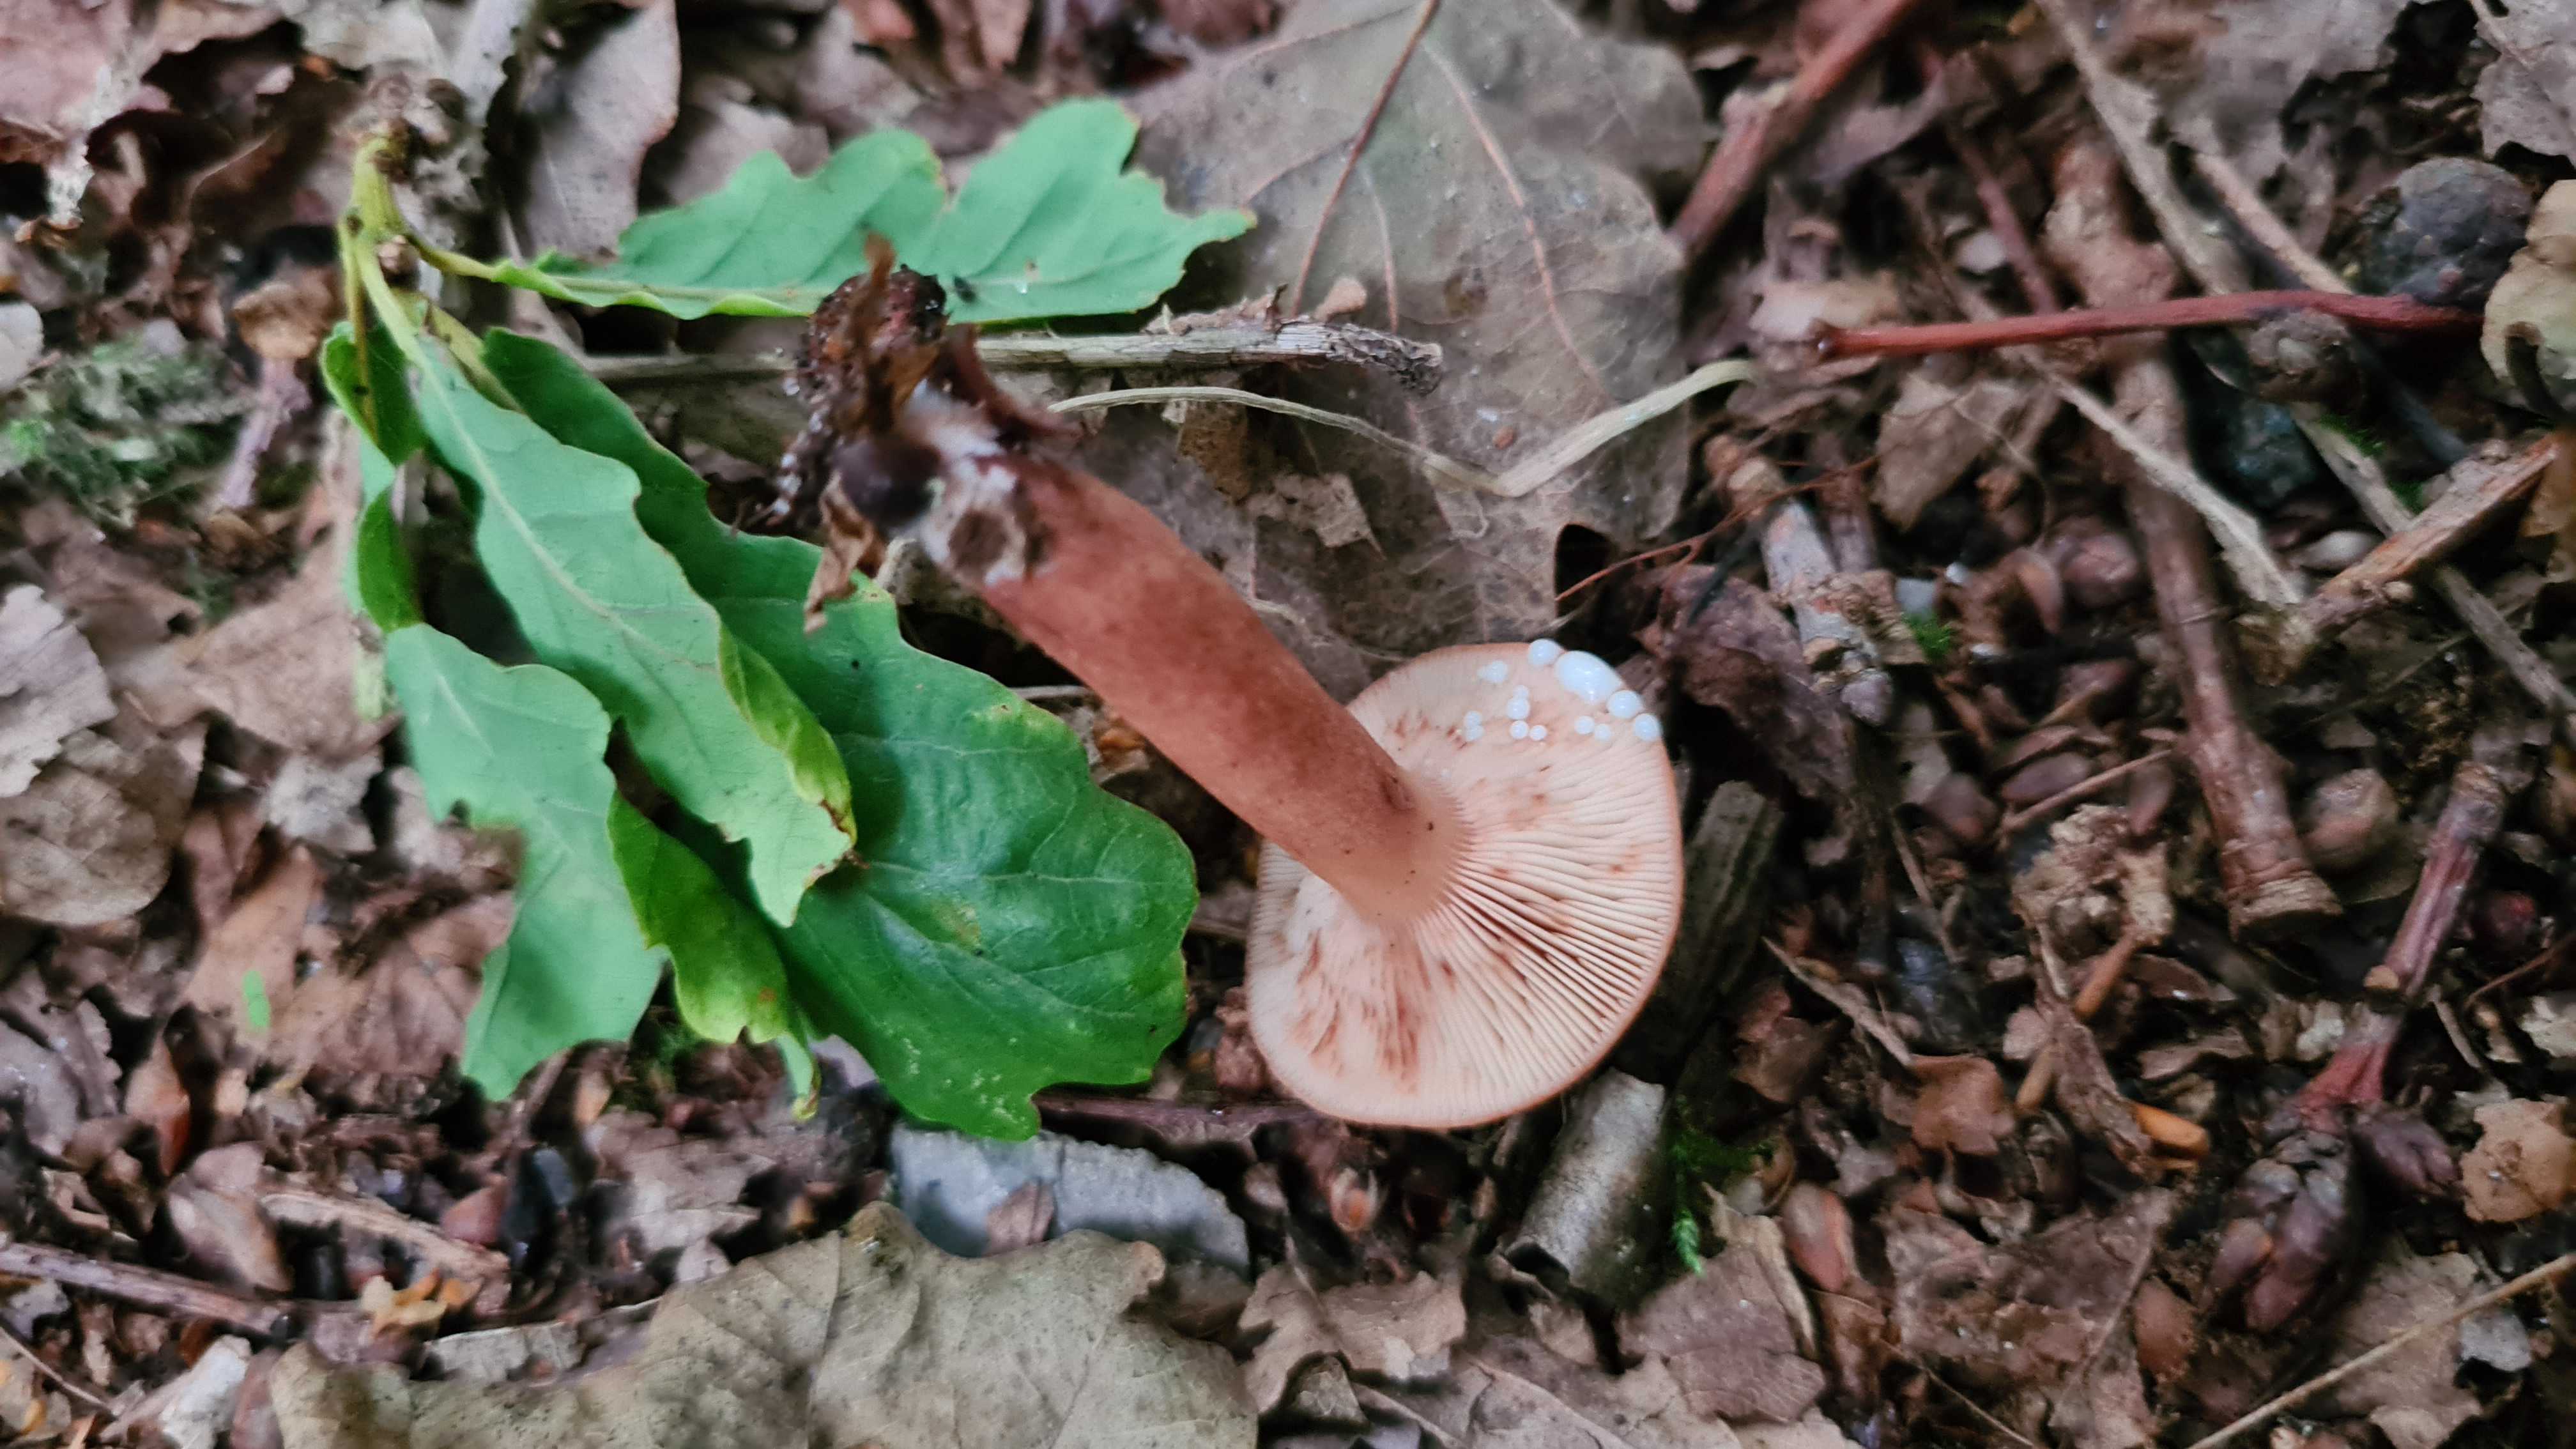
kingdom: Fungi
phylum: Basidiomycota
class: Agaricomycetes
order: Russulales
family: Russulaceae
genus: Lactarius
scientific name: Lactarius quietus
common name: ege-mælkehat
